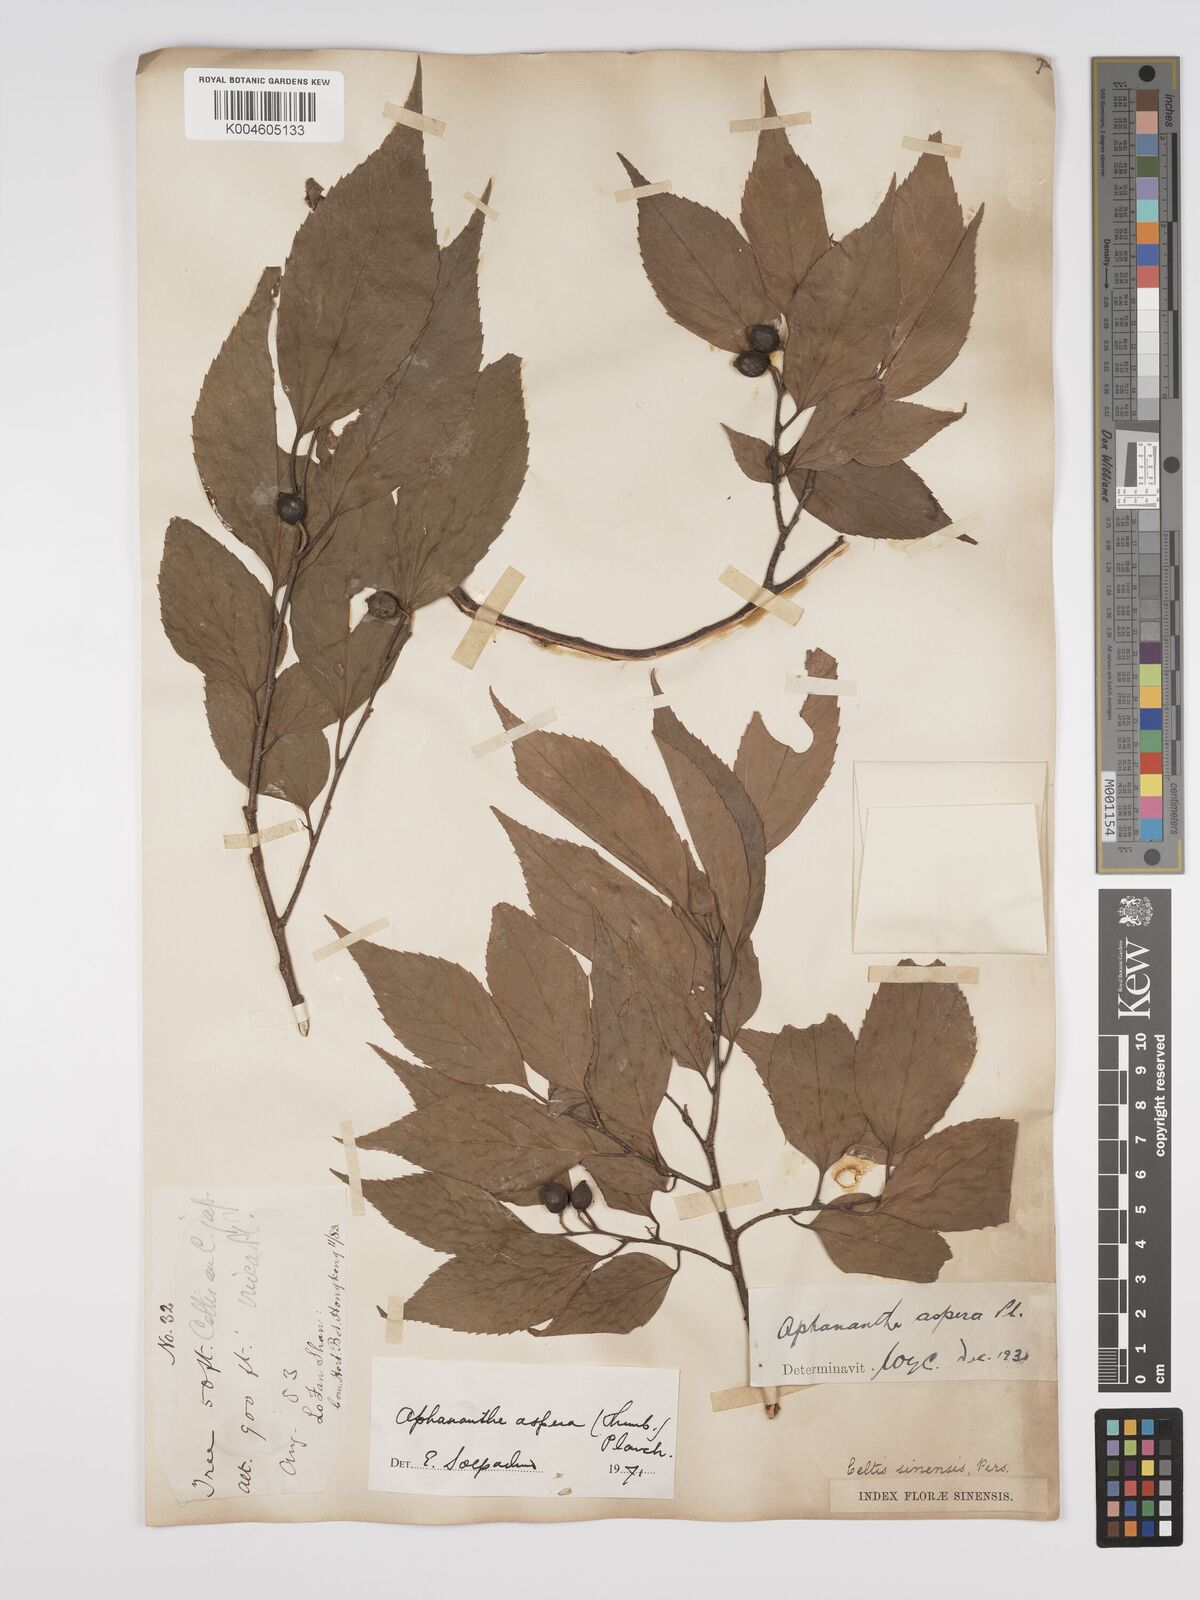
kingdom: Plantae
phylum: Tracheophyta
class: Magnoliopsida
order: Rosales
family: Cannabaceae
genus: Aphananthe
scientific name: Aphananthe aspera
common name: Mukutree
